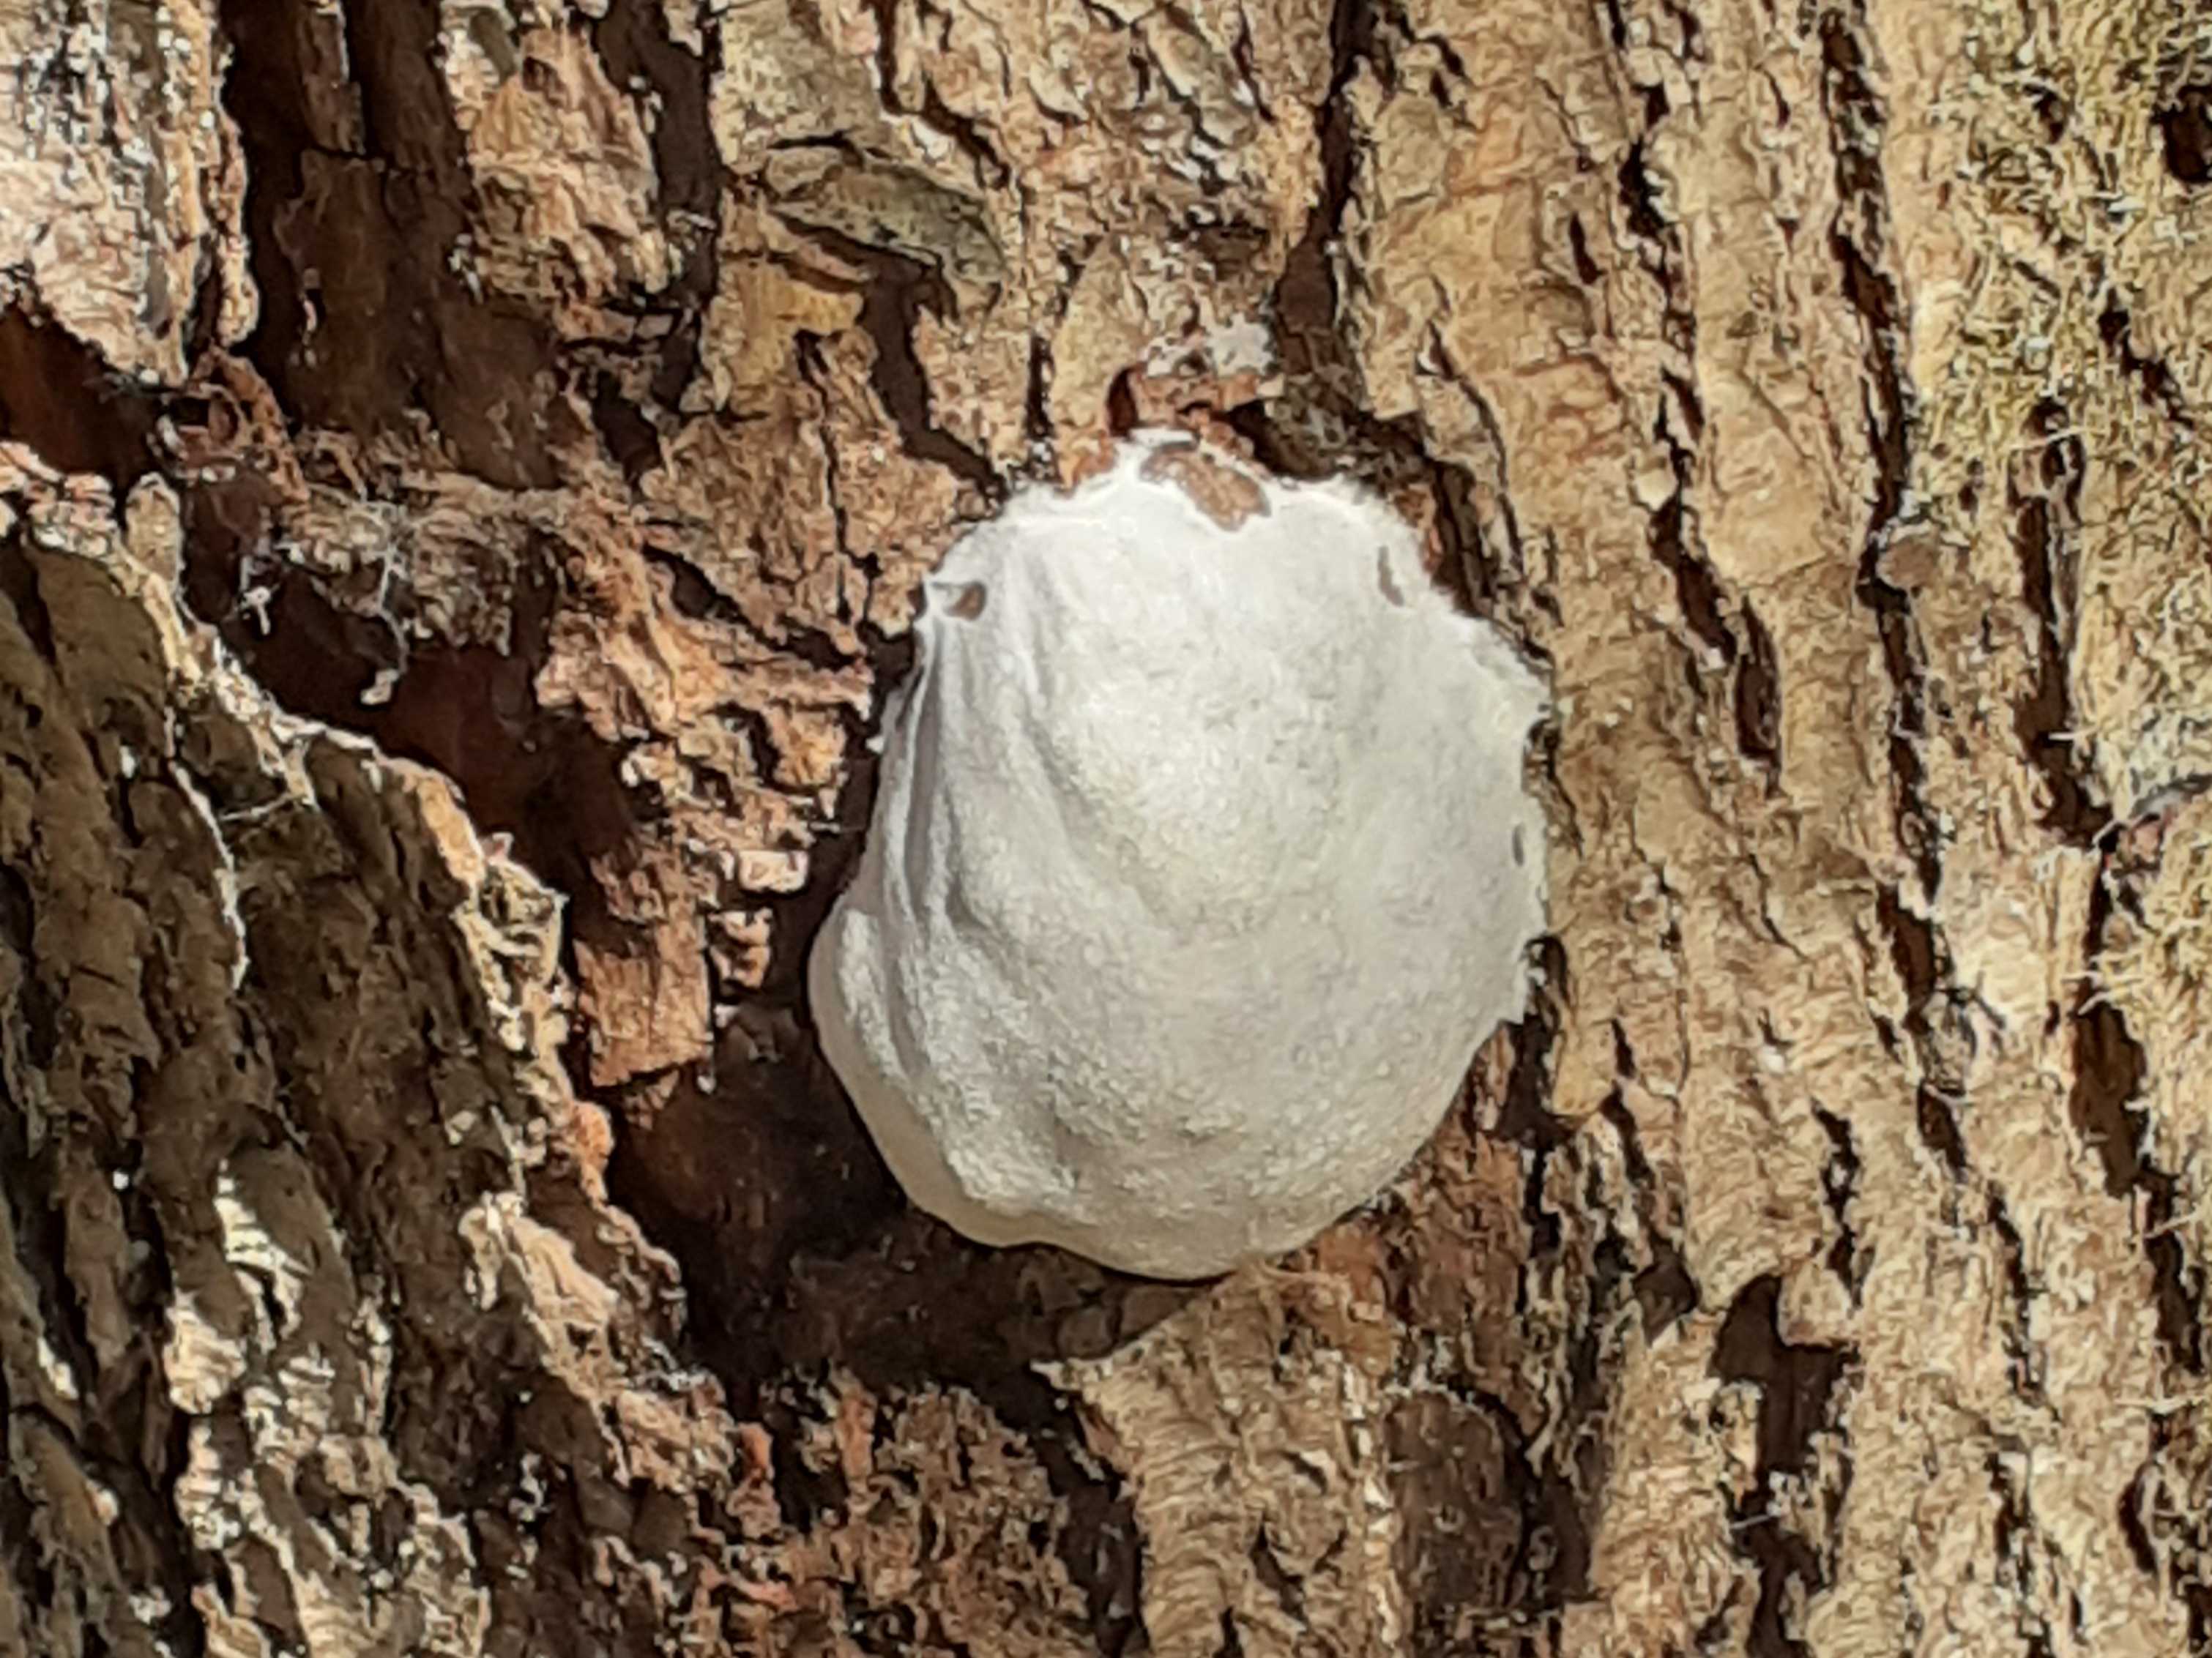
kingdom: Protozoa
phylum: Mycetozoa
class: Myxomycetes
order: Cribrariales
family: Tubiferaceae
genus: Reticularia
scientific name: Reticularia lycoperdon
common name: skinnende støvpude
